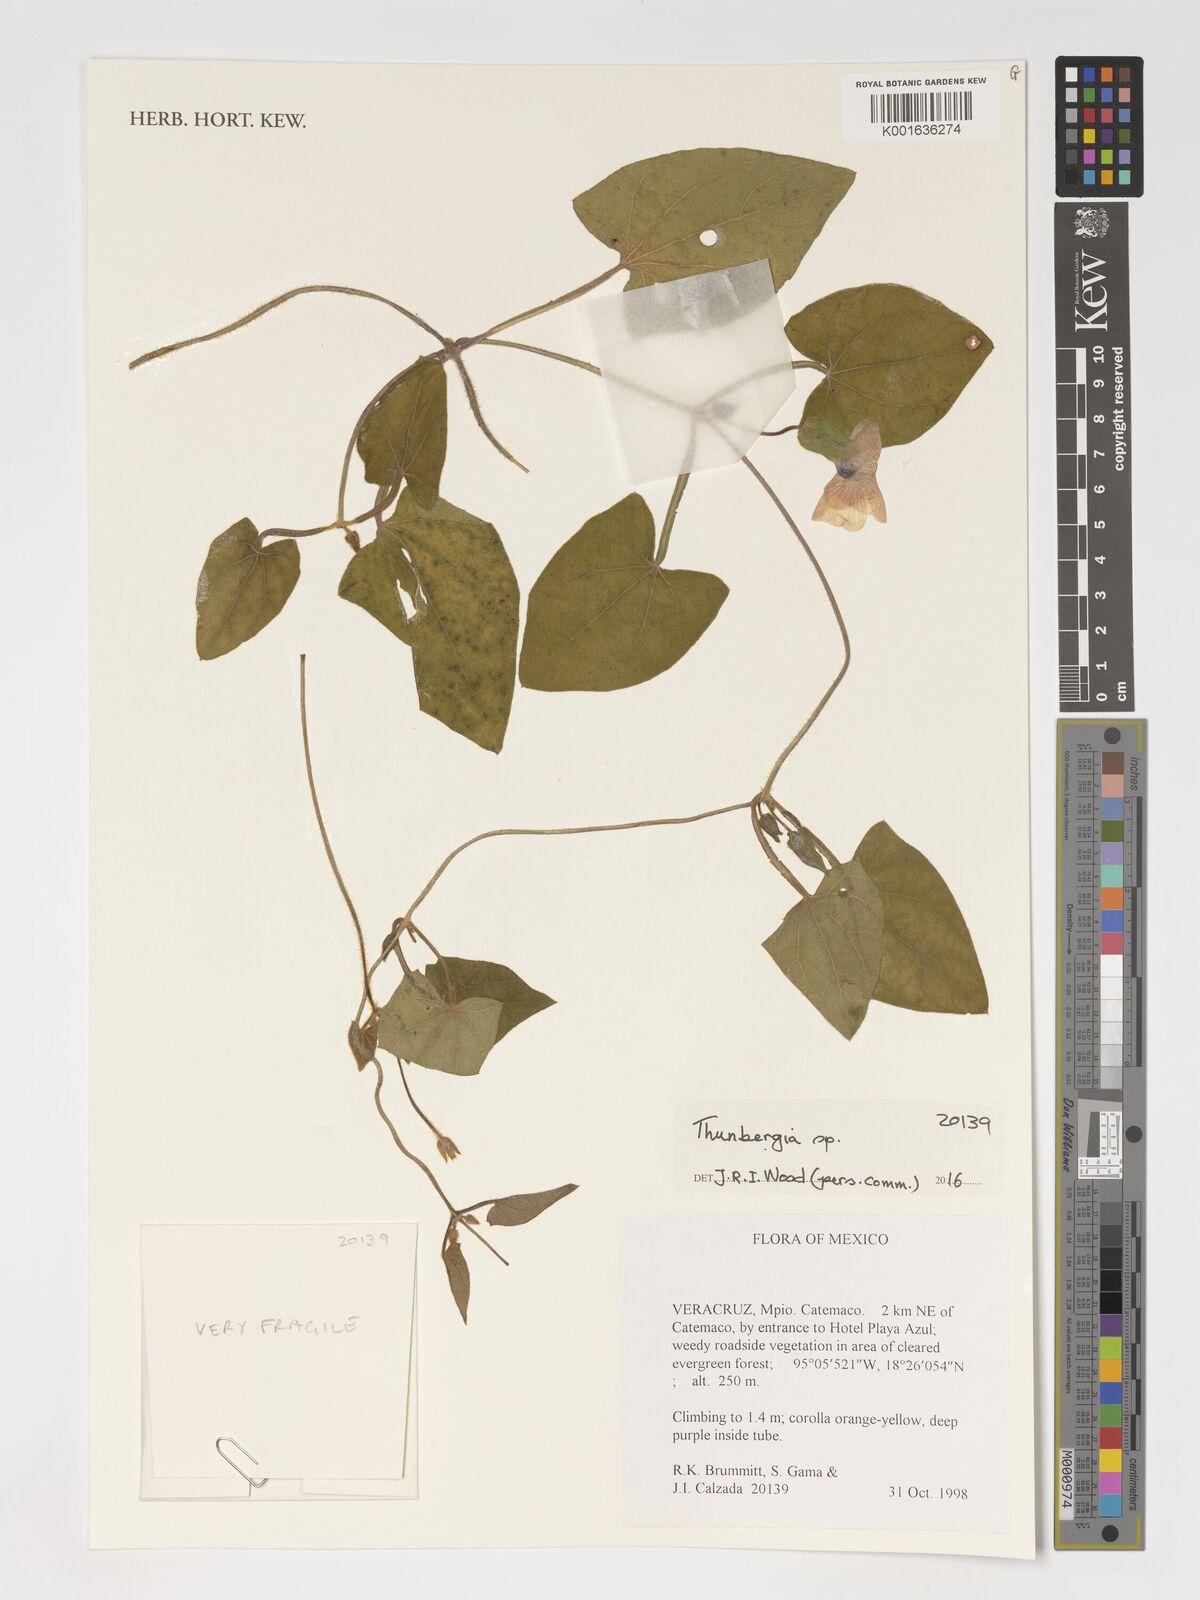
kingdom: Plantae
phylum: Tracheophyta
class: Magnoliopsida
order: Lamiales
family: Acanthaceae
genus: Thunbergia
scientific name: Thunbergia
